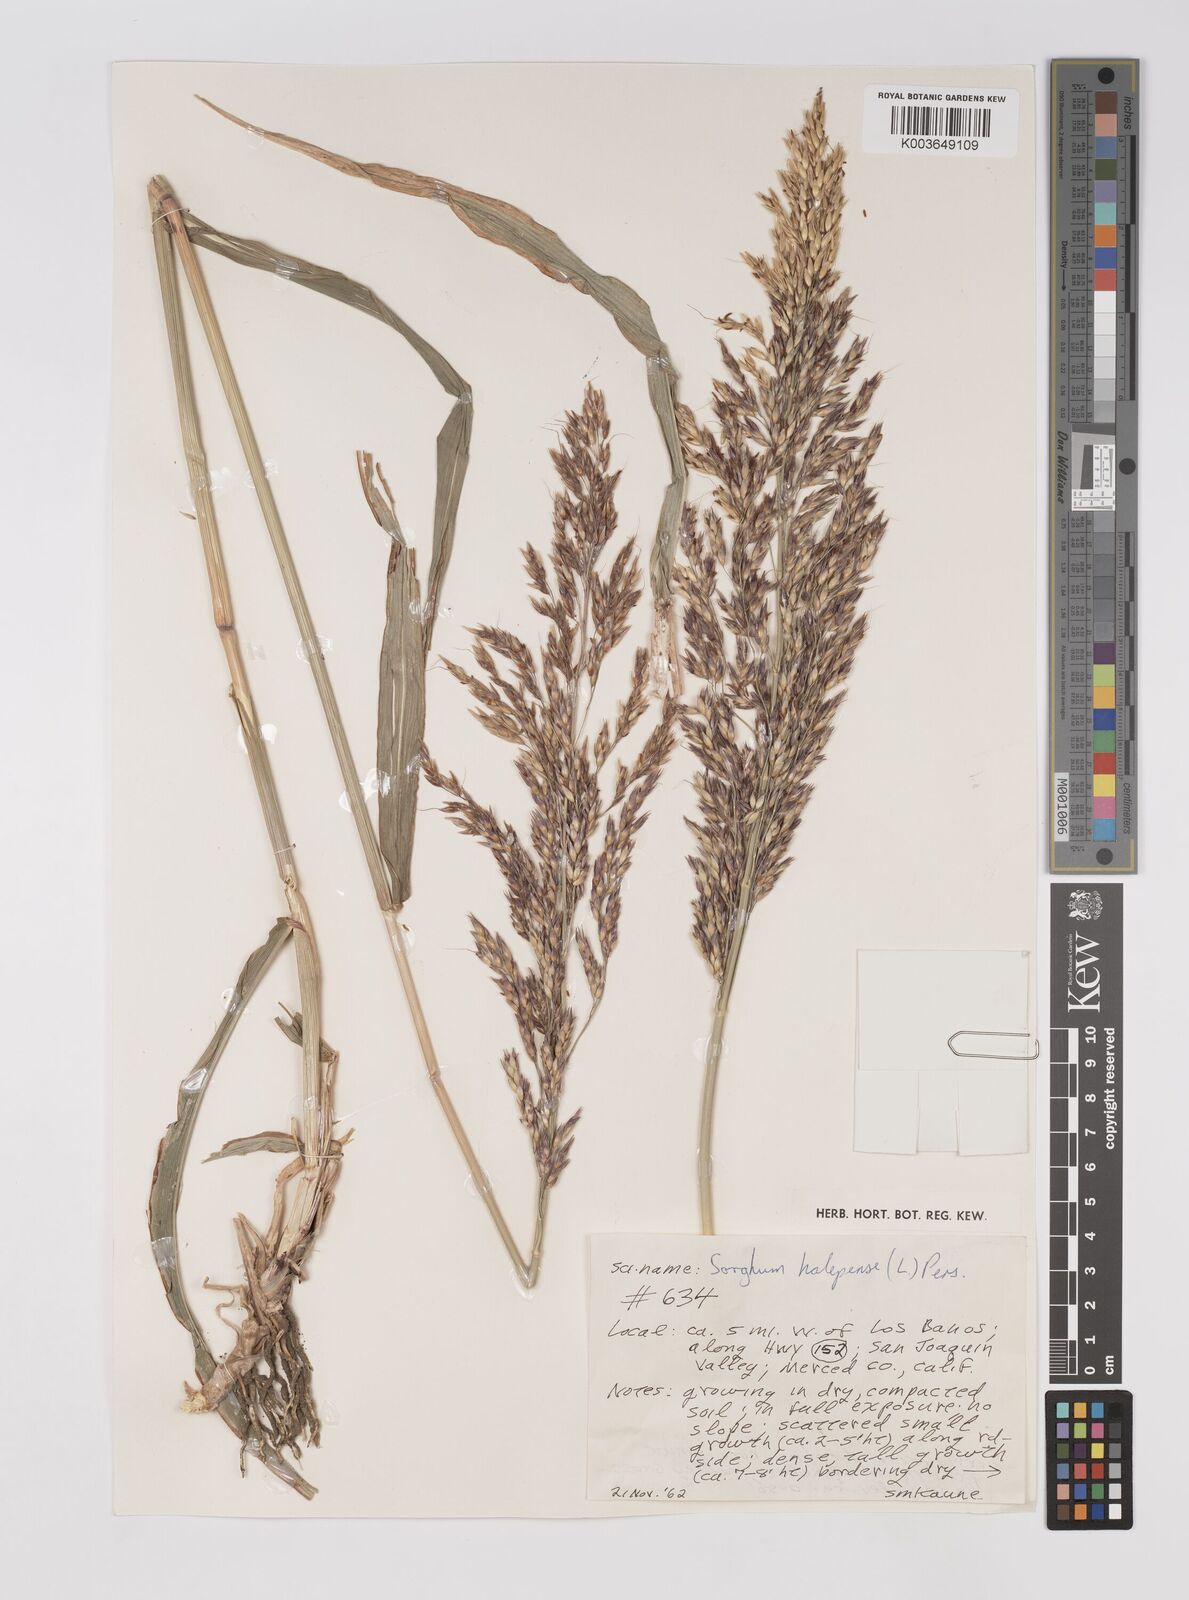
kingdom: Plantae
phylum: Tracheophyta
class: Liliopsida
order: Poales
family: Poaceae
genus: Sorghum
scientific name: Sorghum halepense
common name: Johnson-grass
